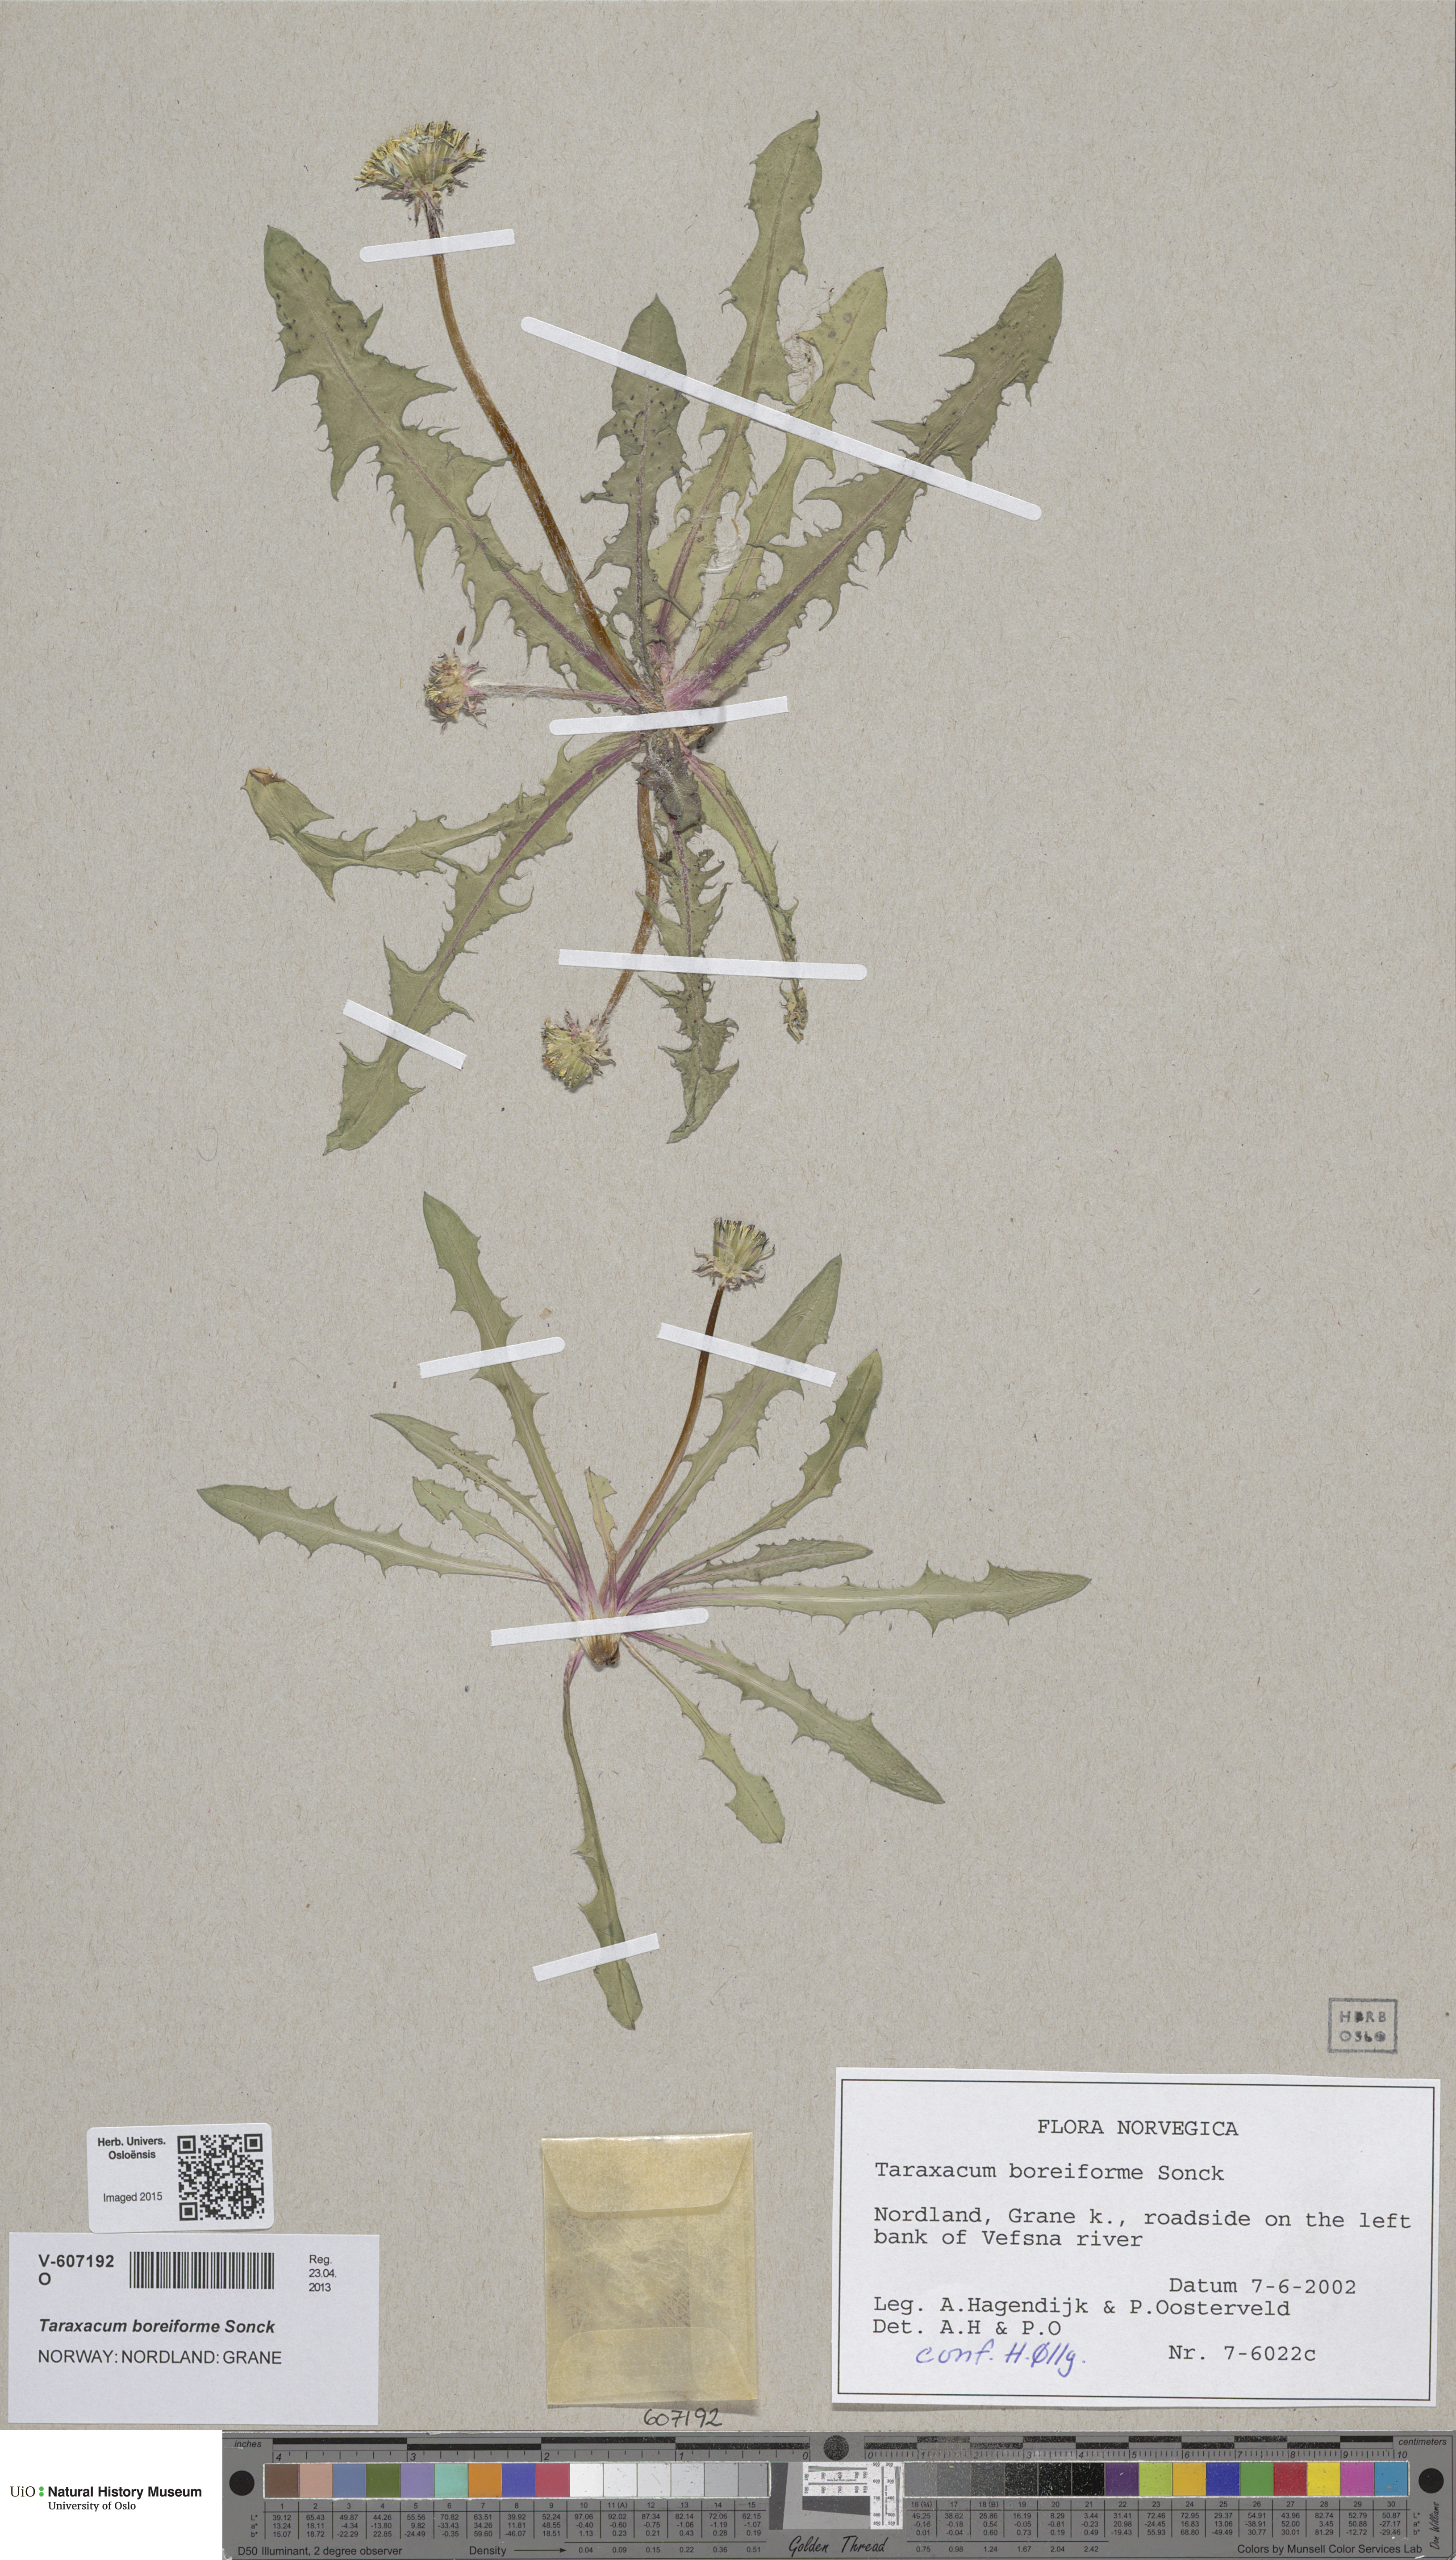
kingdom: Plantae
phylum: Tracheophyta
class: Magnoliopsida
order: Asterales
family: Asteraceae
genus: Taraxacum
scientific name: Taraxacum boreiforme
